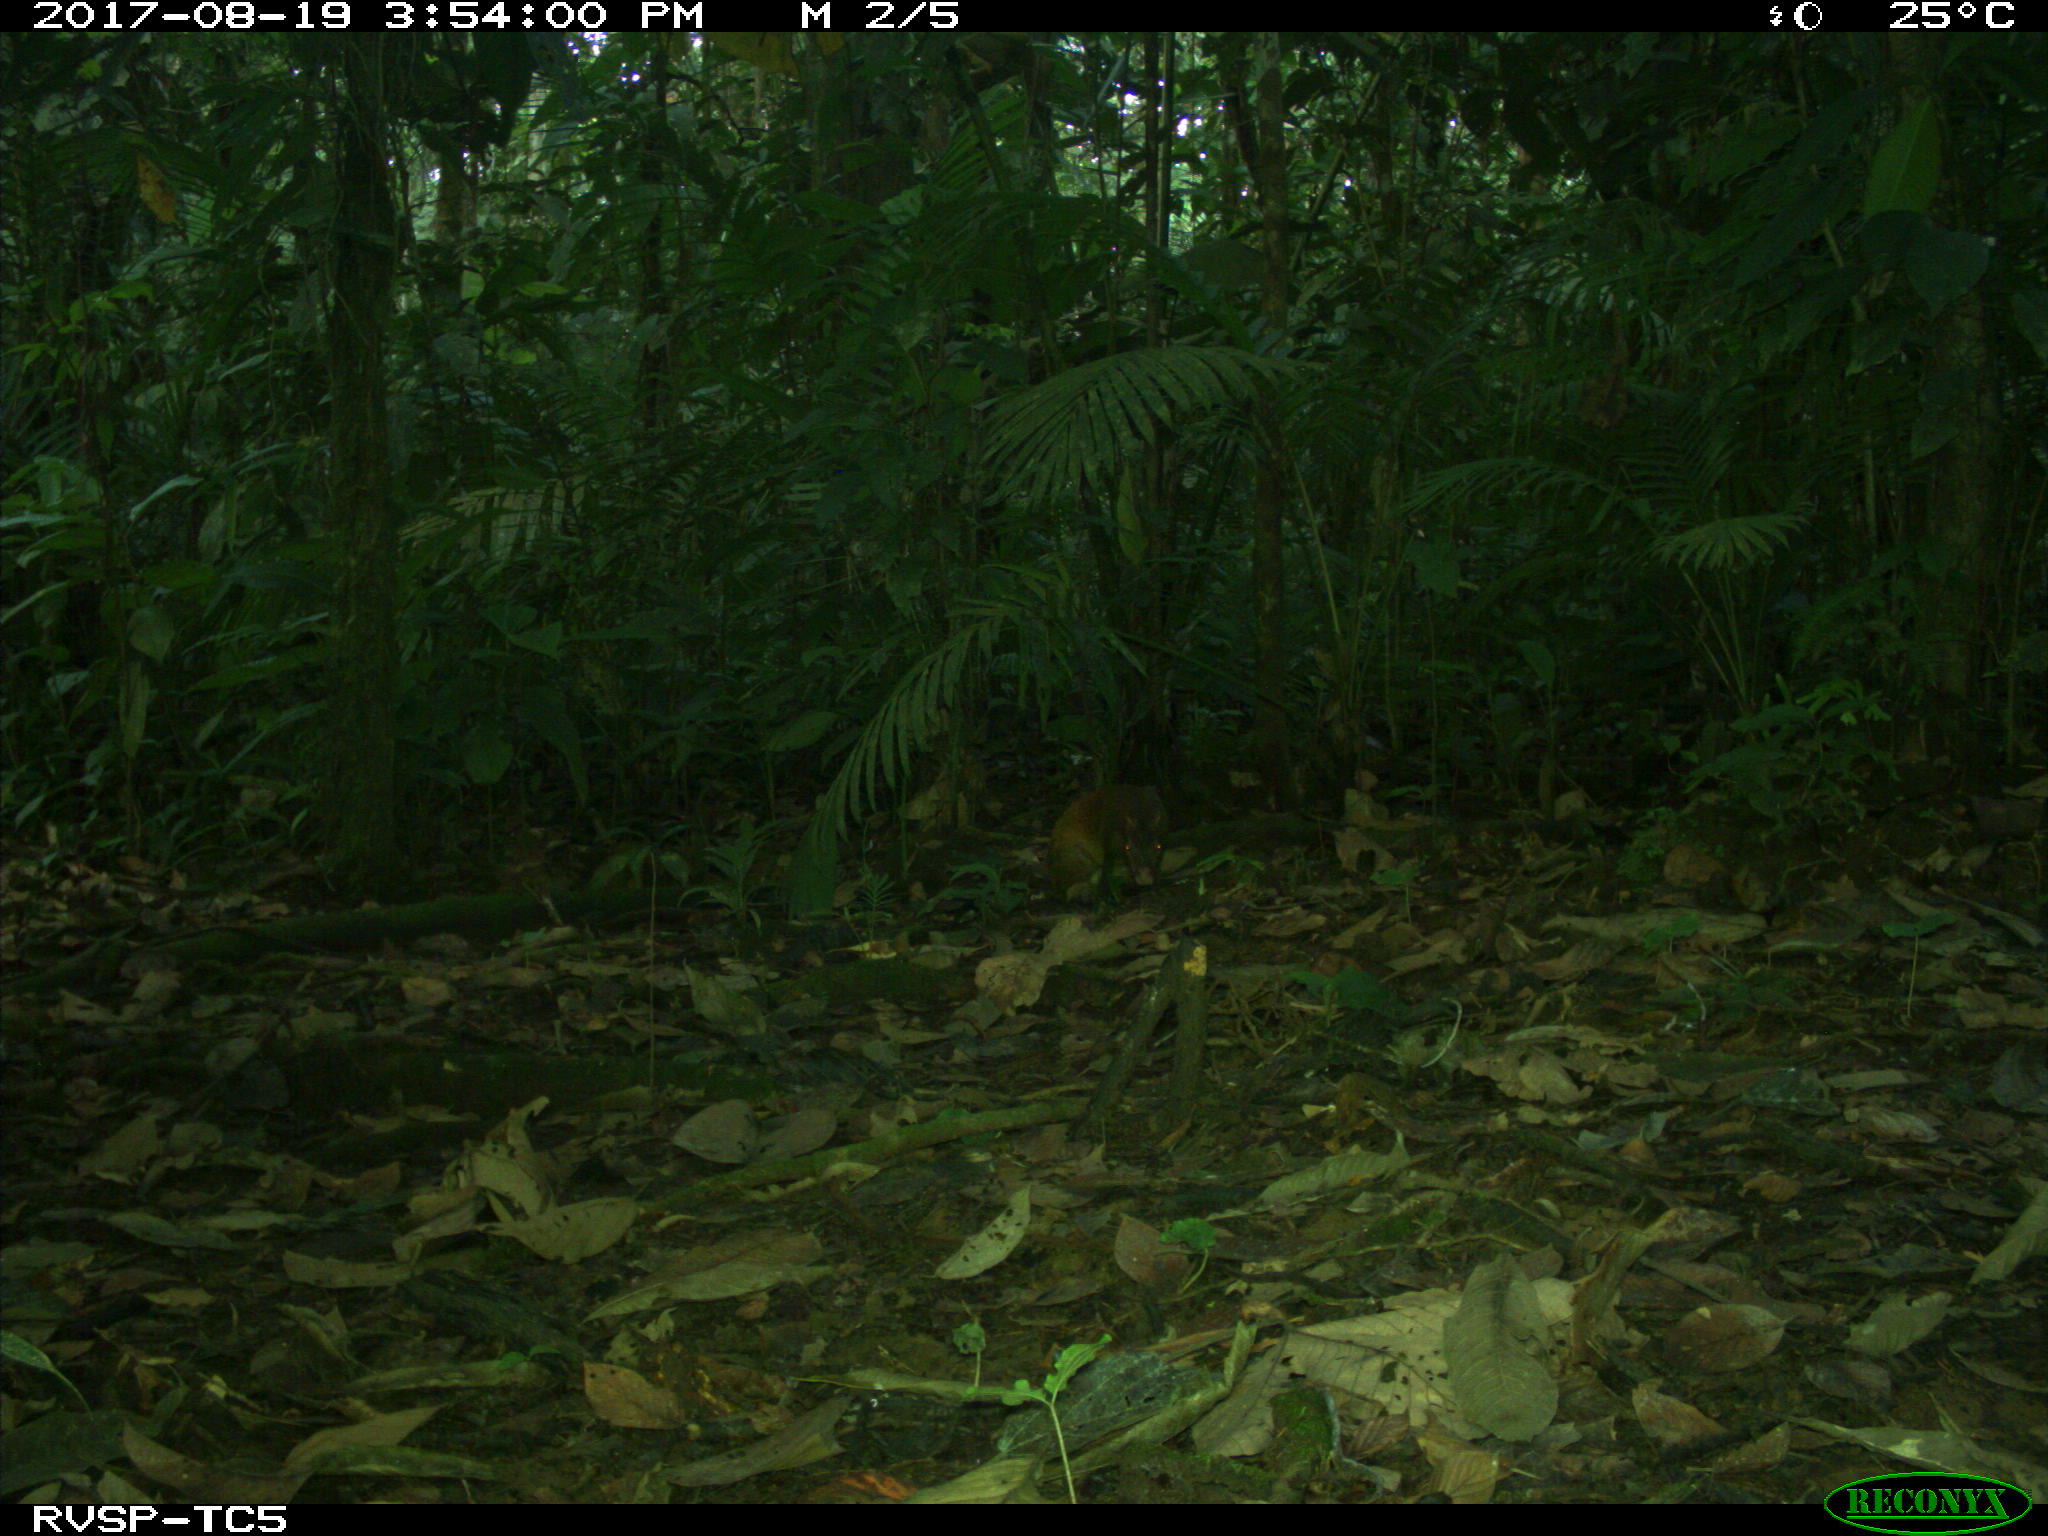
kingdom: Animalia
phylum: Chordata
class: Mammalia
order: Rodentia
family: Dasyproctidae
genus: Dasyprocta
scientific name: Dasyprocta punctata
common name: Central american agouti
